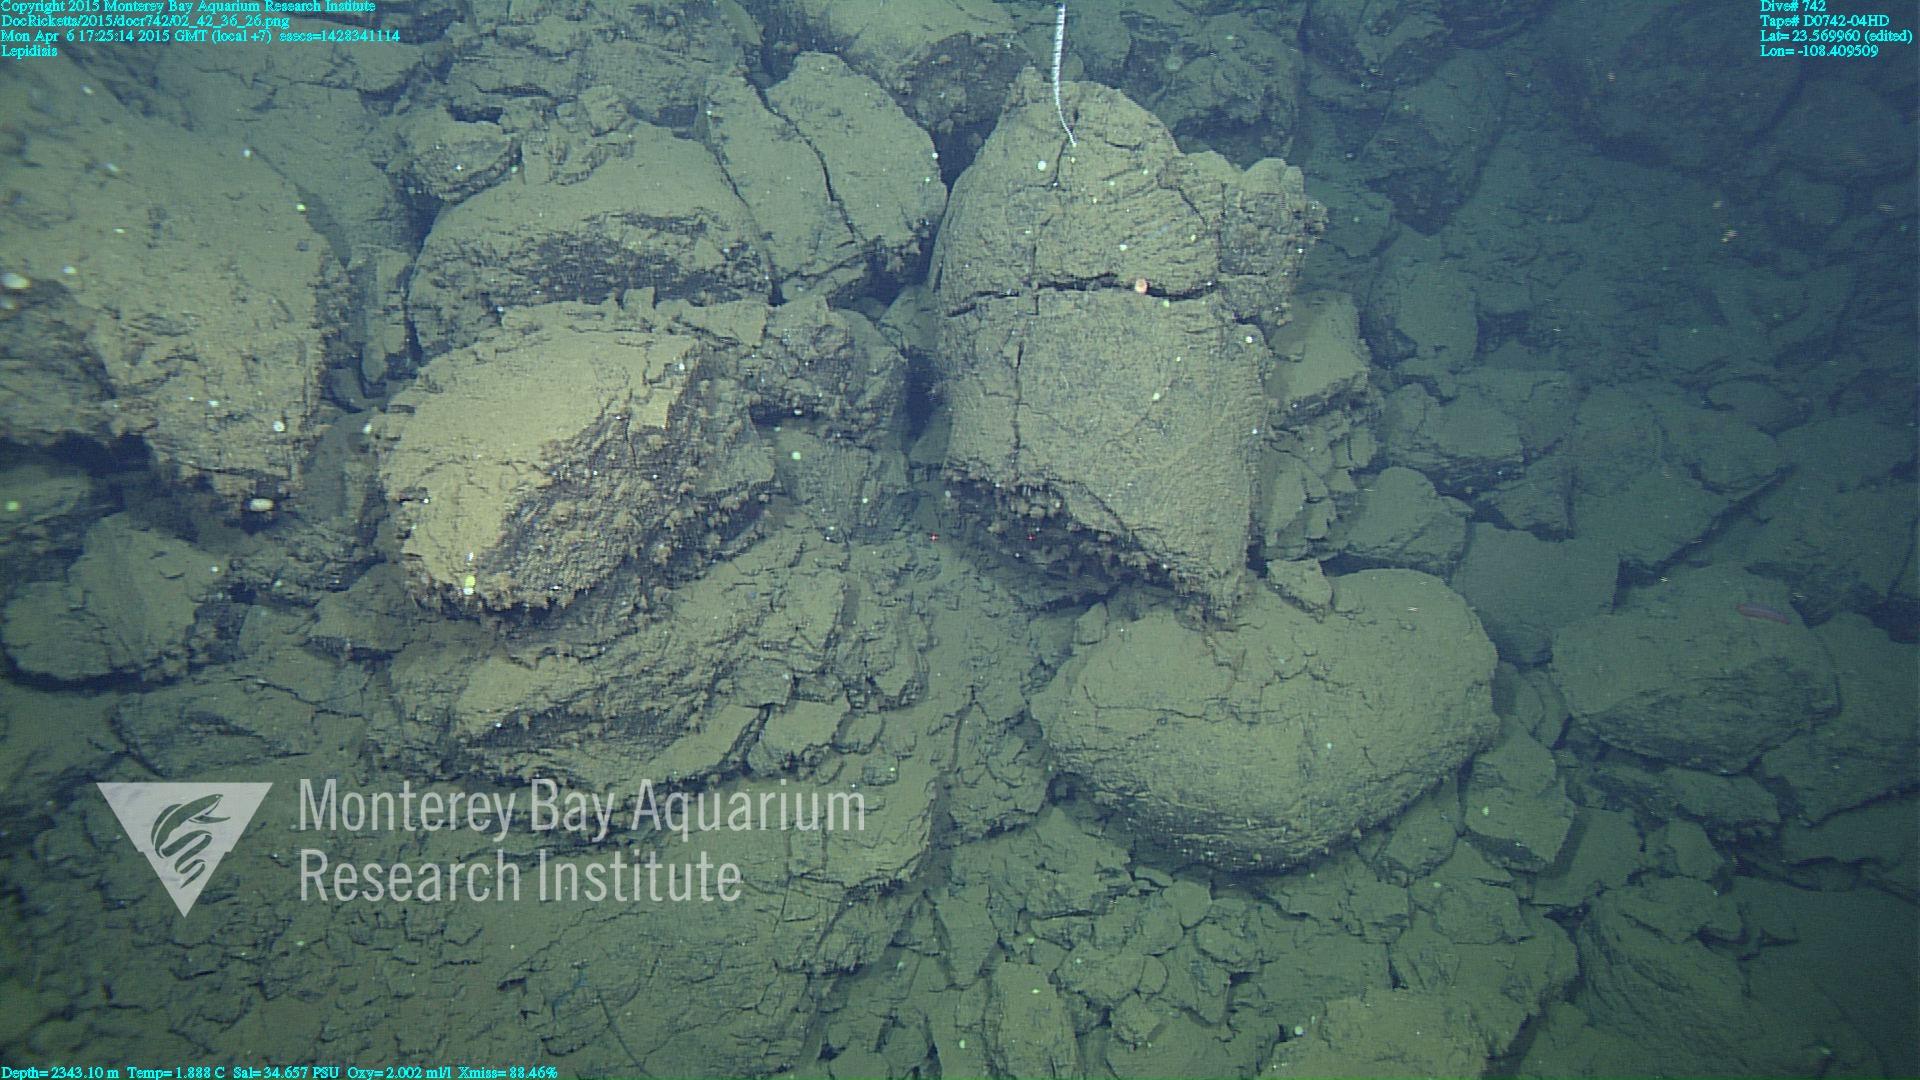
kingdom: Animalia
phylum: Cnidaria
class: Anthozoa
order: Scleralcyonacea
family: Keratoisididae
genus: Lepidisis
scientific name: Lepidisis
